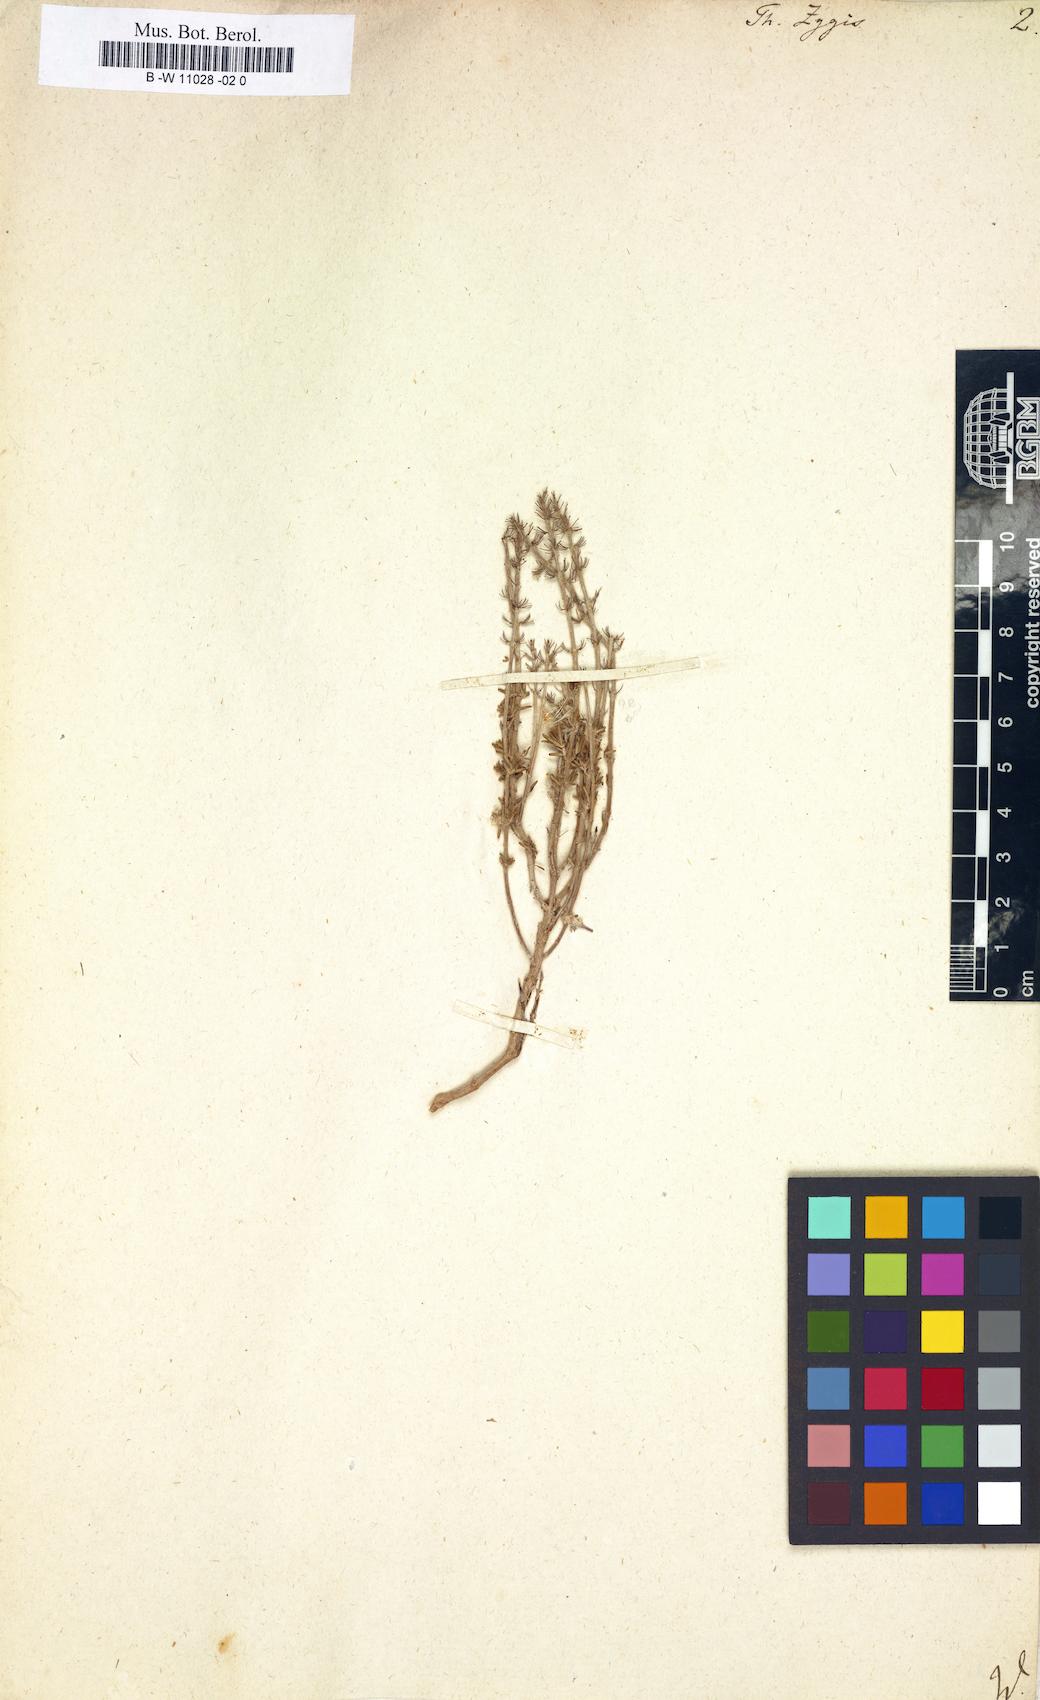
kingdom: Plantae
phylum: Tracheophyta
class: Magnoliopsida
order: Lamiales
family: Lamiaceae
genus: Thymus
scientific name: Thymus zygis
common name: White thyme
